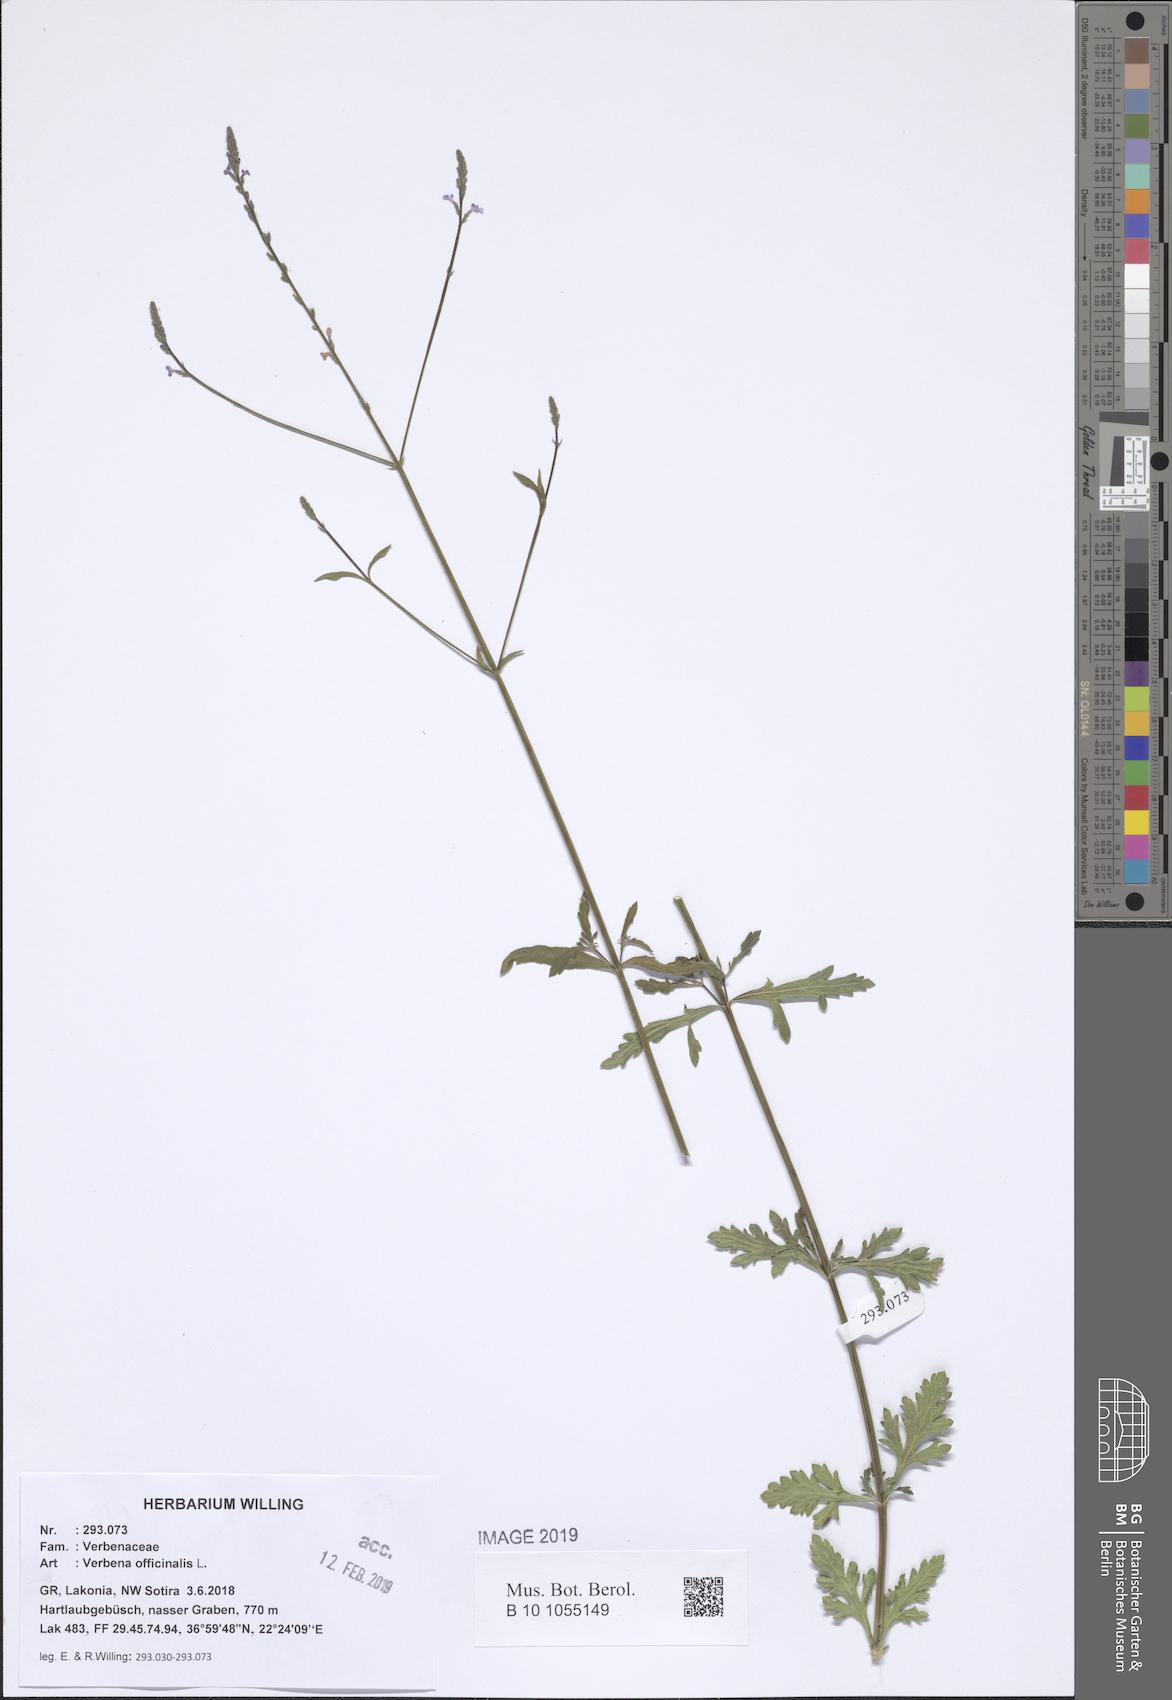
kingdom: Plantae
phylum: Tracheophyta
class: Magnoliopsida
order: Lamiales
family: Verbenaceae
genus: Verbena
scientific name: Verbena officinalis
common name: Vervain
